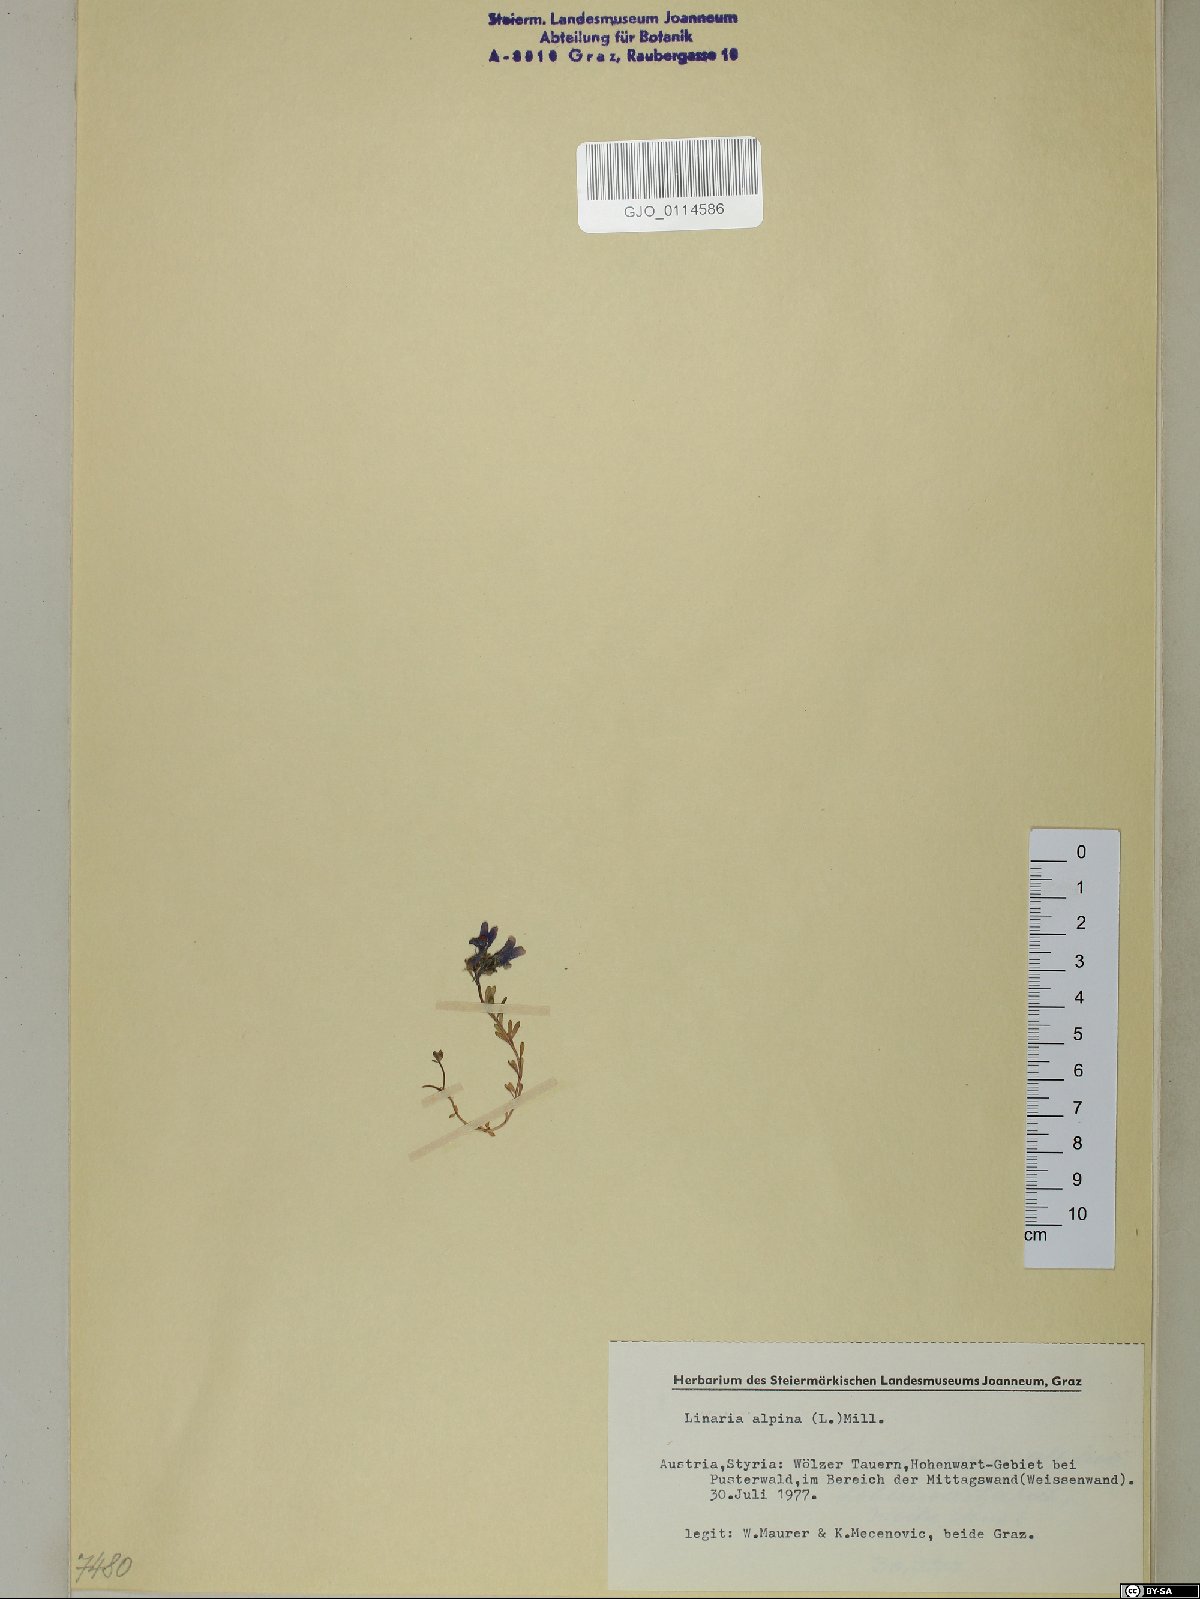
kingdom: Plantae
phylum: Tracheophyta
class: Magnoliopsida
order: Lamiales
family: Plantaginaceae
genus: Linaria
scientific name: Linaria alpina
